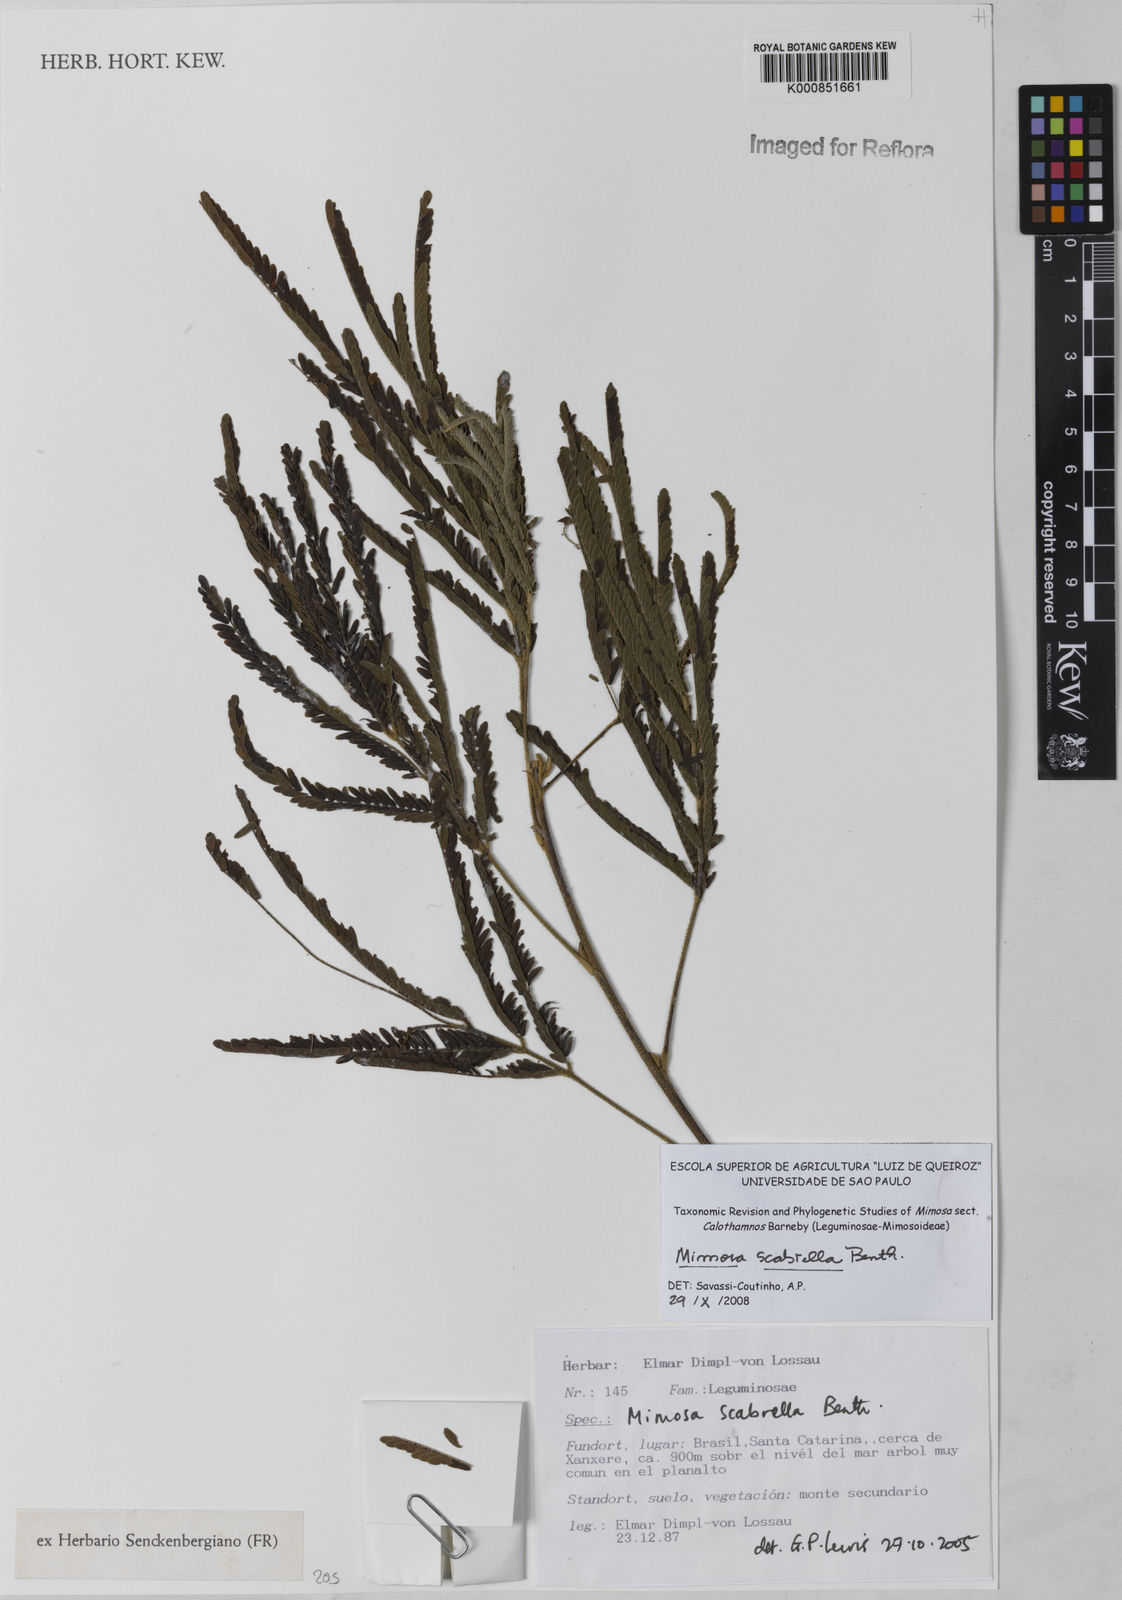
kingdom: Plantae
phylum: Tracheophyta
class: Magnoliopsida
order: Fabales
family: Fabaceae
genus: Mimosa
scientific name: Mimosa scabrella
